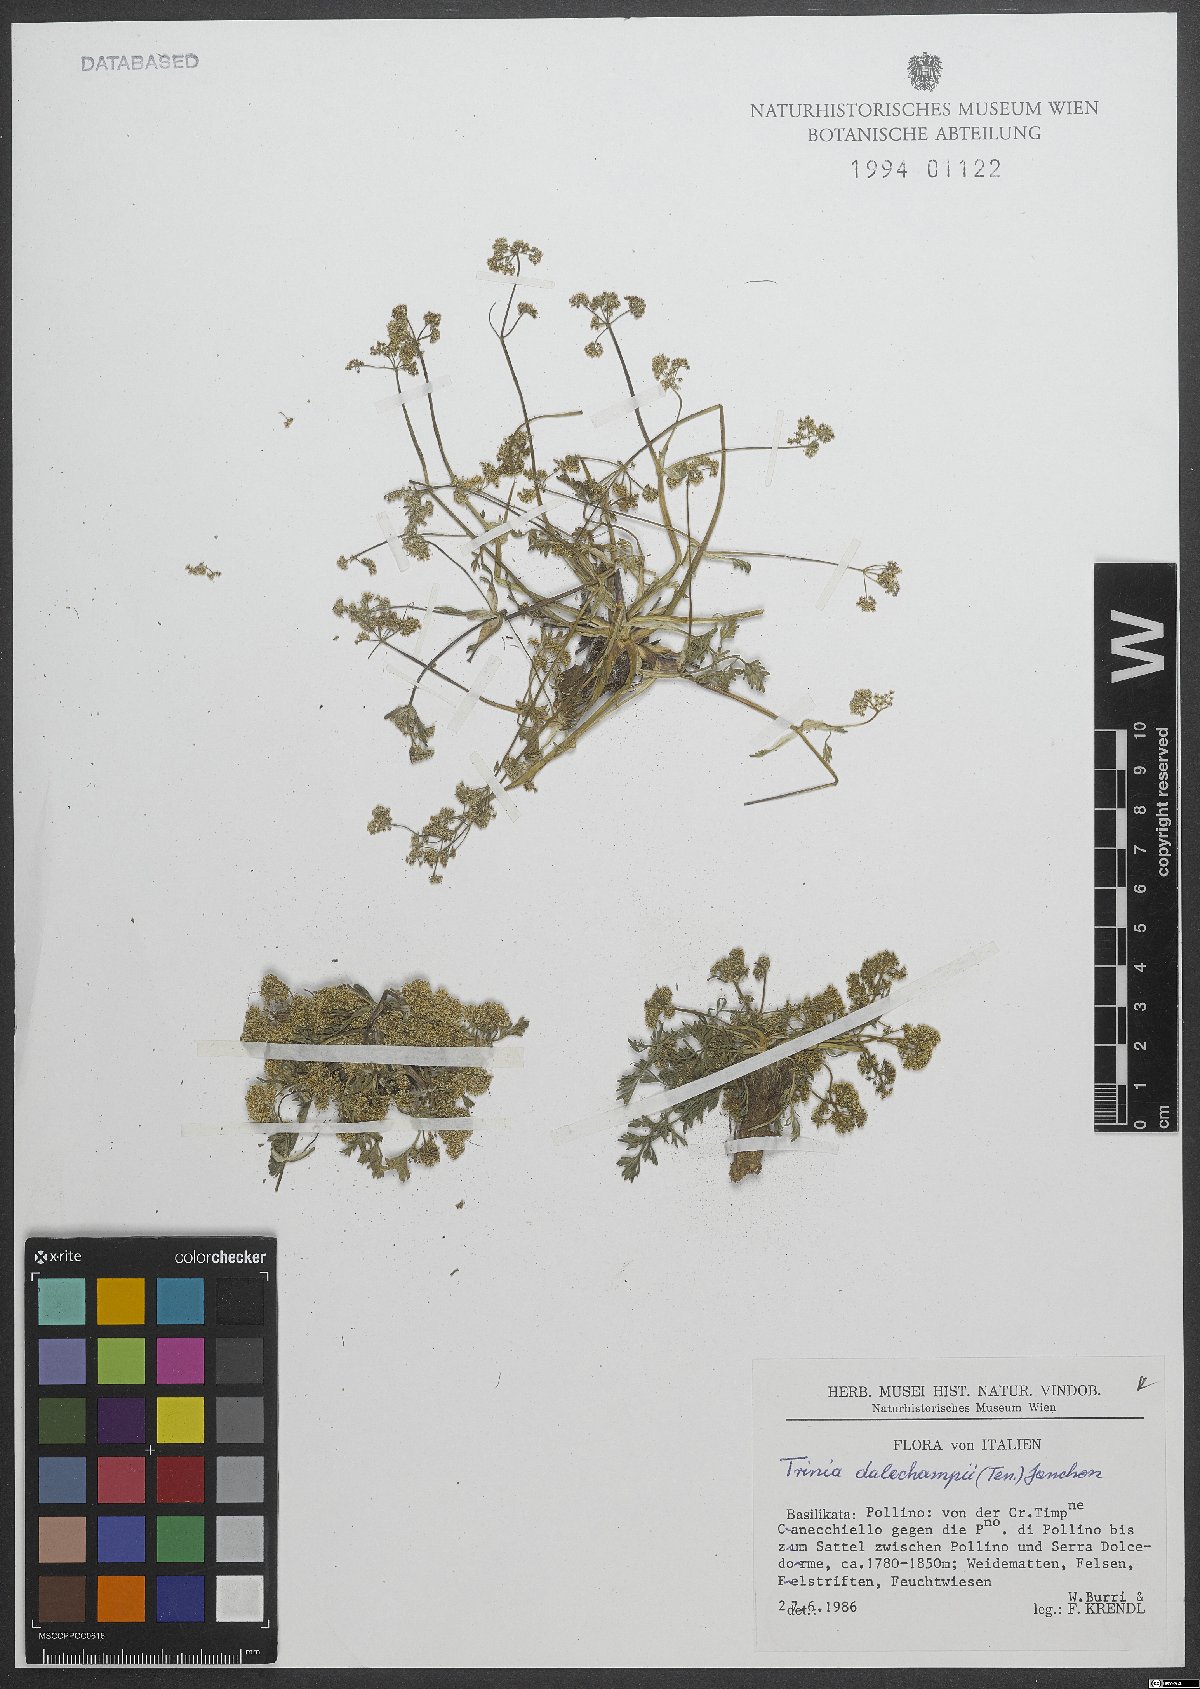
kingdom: Plantae
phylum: Tracheophyta
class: Magnoliopsida
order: Apiales
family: Apiaceae
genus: Trinia
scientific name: Trinia dalechampii
